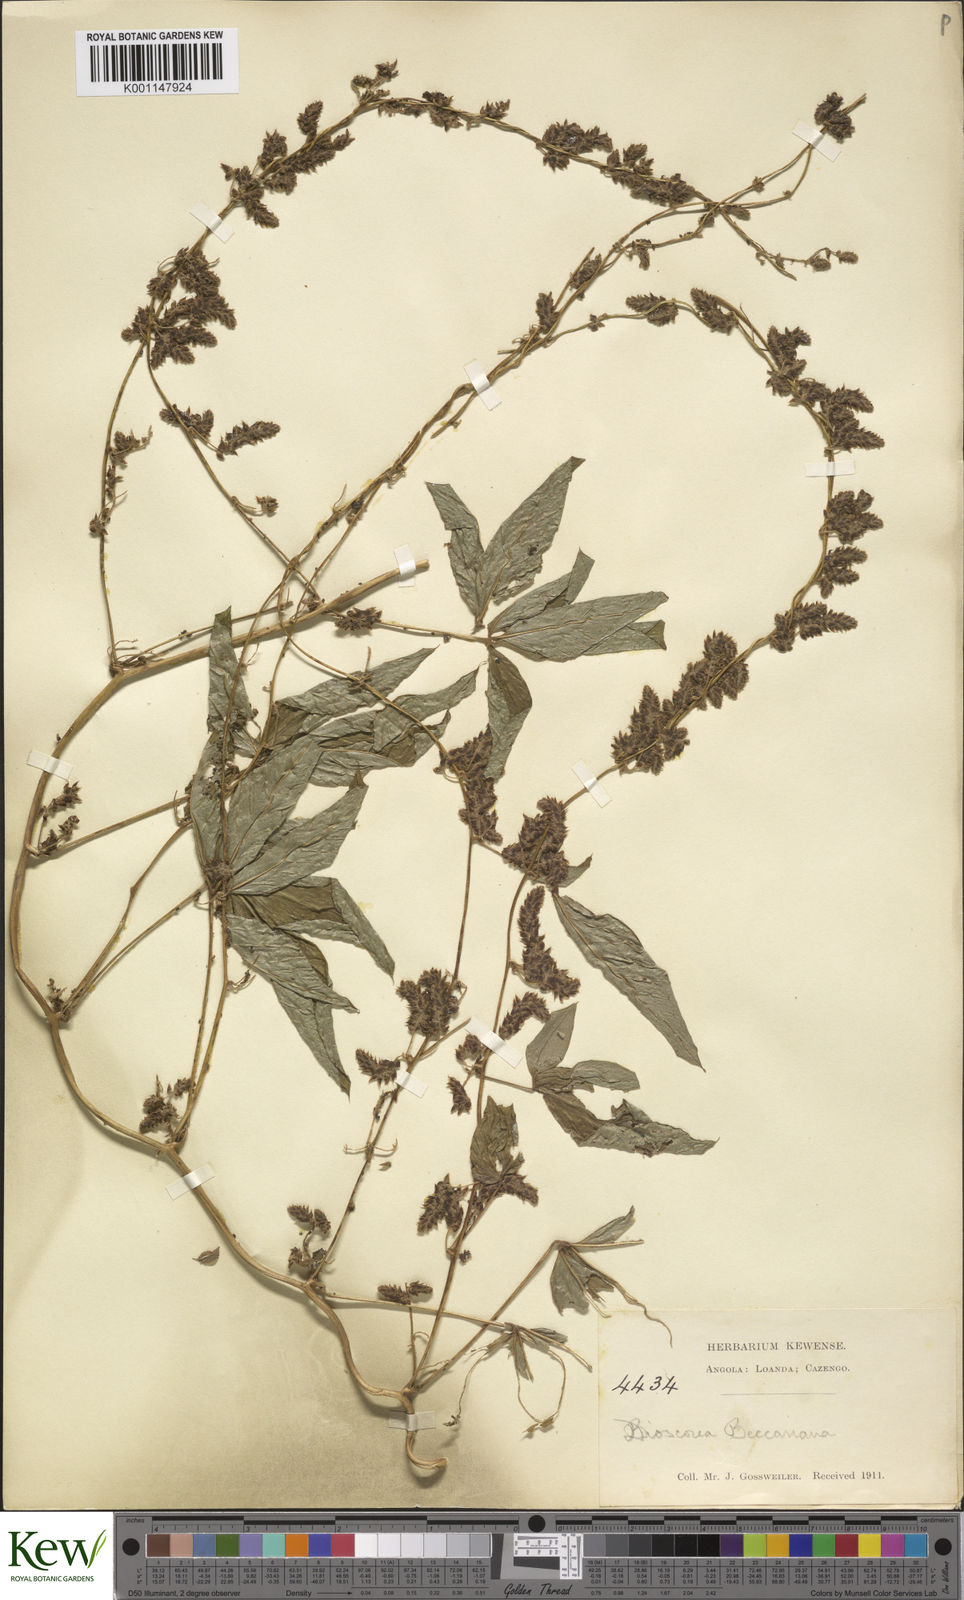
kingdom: Plantae
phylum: Tracheophyta
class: Liliopsida
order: Dioscoreales
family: Dioscoreaceae
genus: Dioscorea
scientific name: Dioscorea quartiniana
